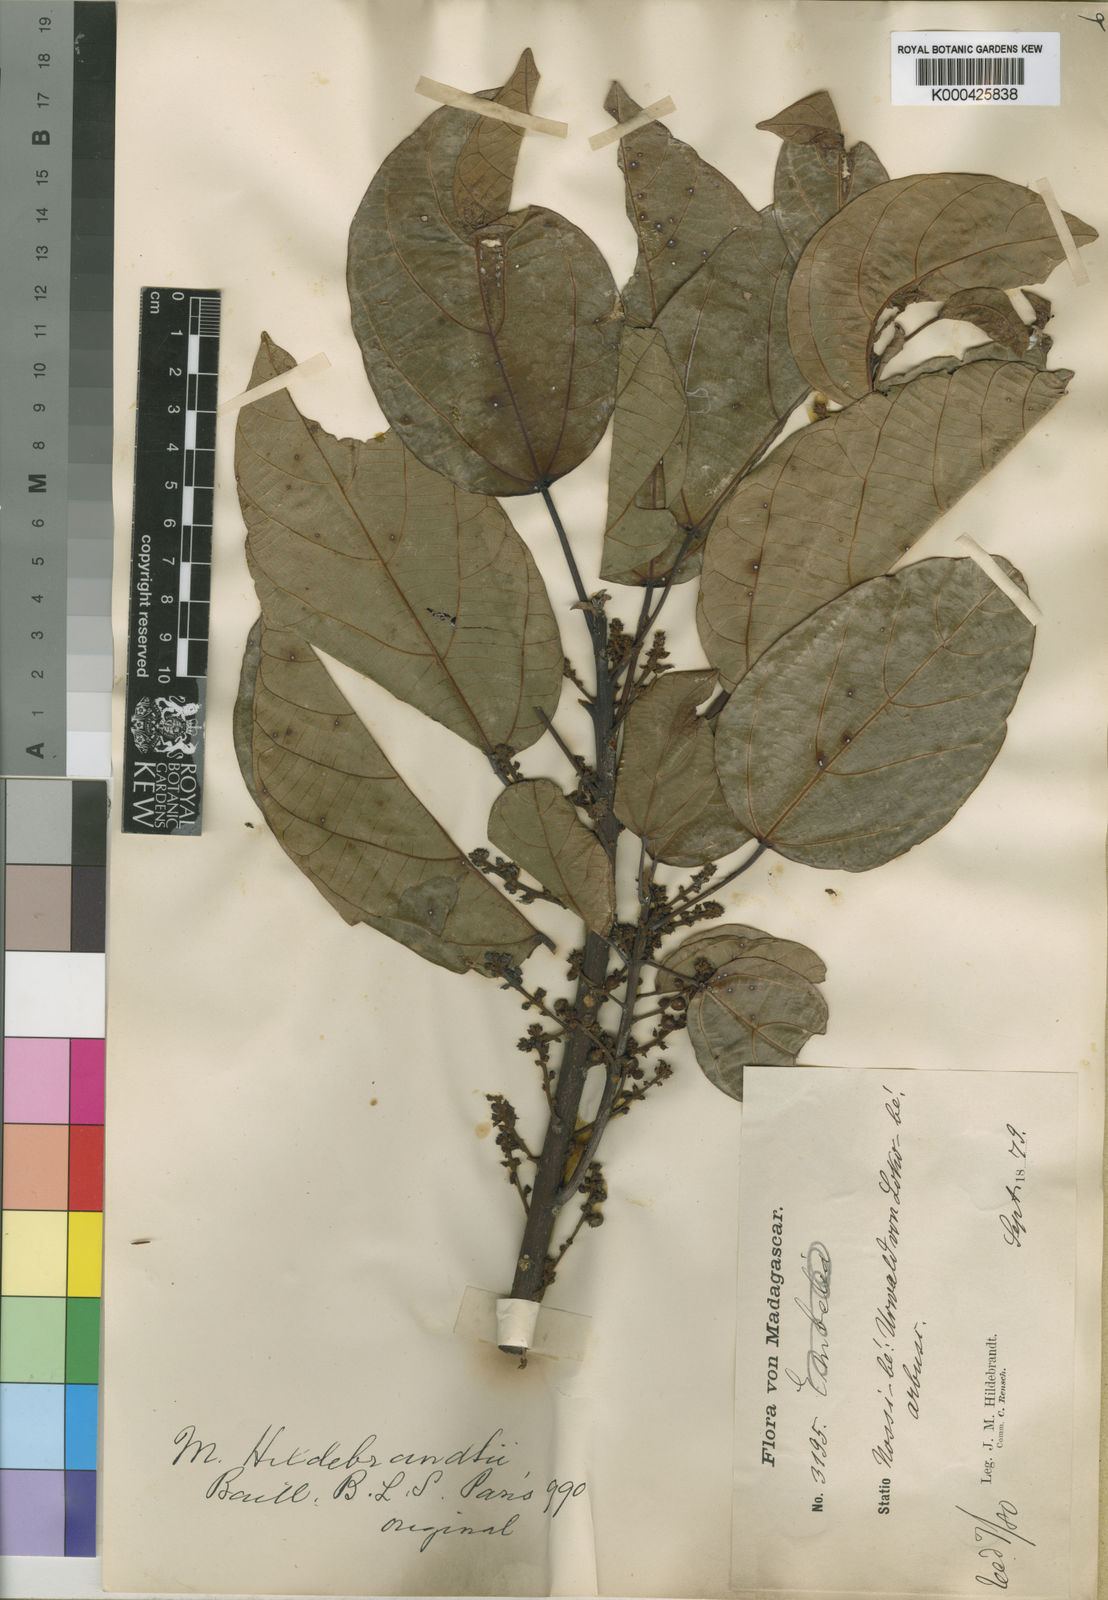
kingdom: Plantae
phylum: Tracheophyta
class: Magnoliopsida
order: Malpighiales
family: Euphorbiaceae
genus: Macaranga
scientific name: Macaranga boutonioides
